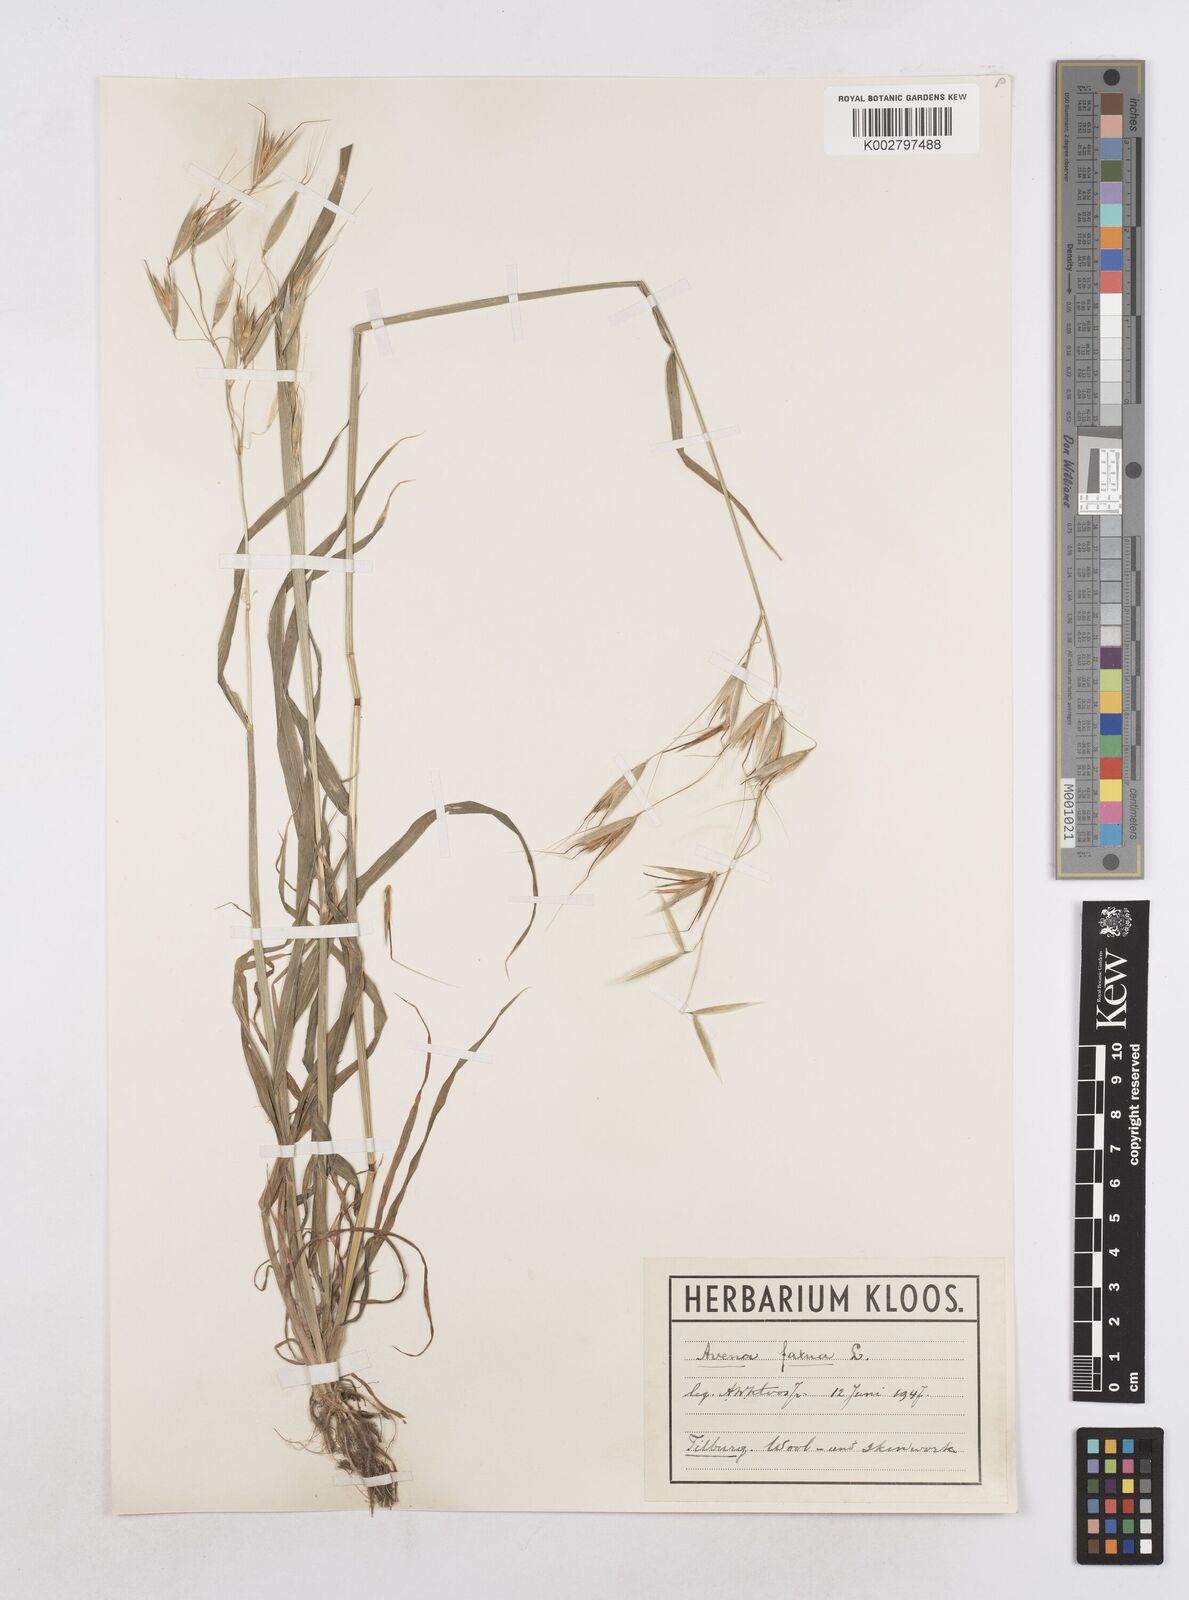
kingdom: Plantae
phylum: Tracheophyta
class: Liliopsida
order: Poales
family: Poaceae
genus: Avena
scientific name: Avena fatua
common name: Wild oat
